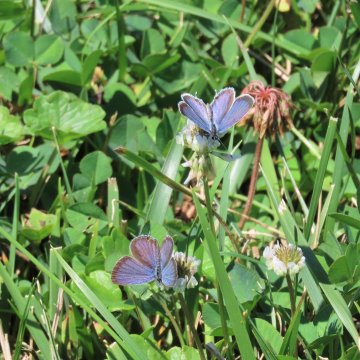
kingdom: Animalia
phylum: Arthropoda
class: Insecta
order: Lepidoptera
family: Lycaenidae
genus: Elkalyce
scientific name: Elkalyce comyntas
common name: Eastern Tailed-Blue
